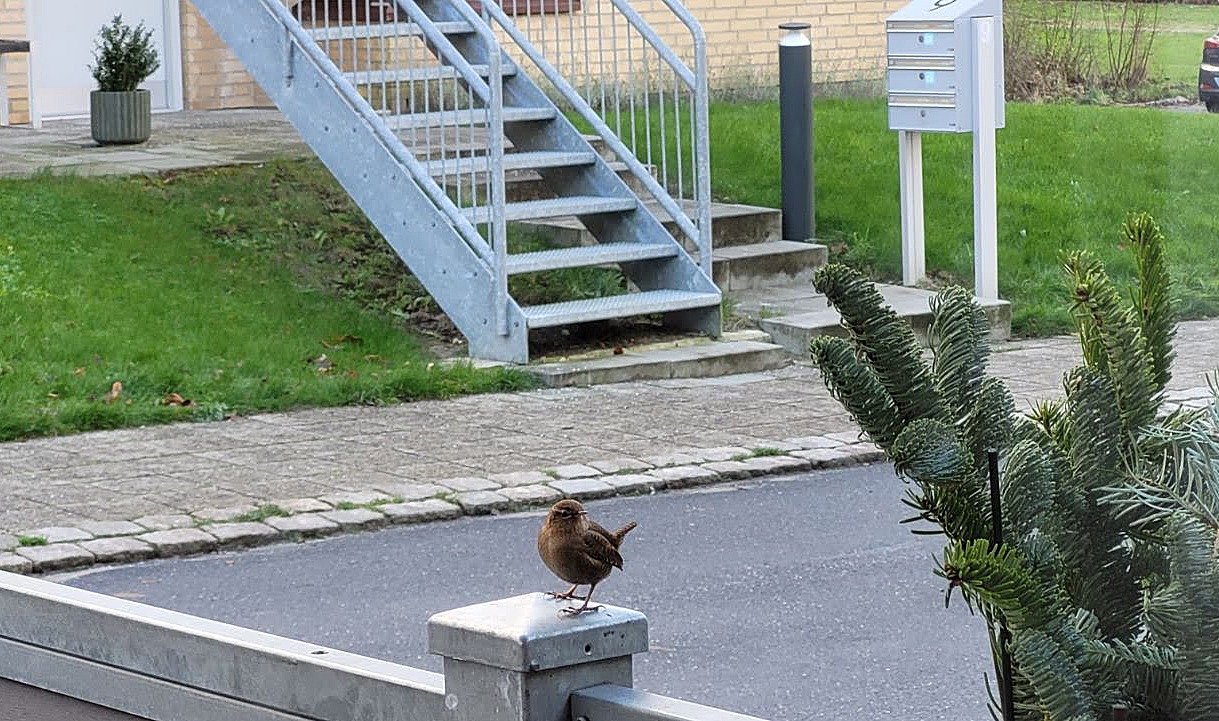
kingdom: Animalia
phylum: Chordata
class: Aves
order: Passeriformes
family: Troglodytidae
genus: Troglodytes
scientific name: Troglodytes troglodytes
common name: Gærdesmutte
